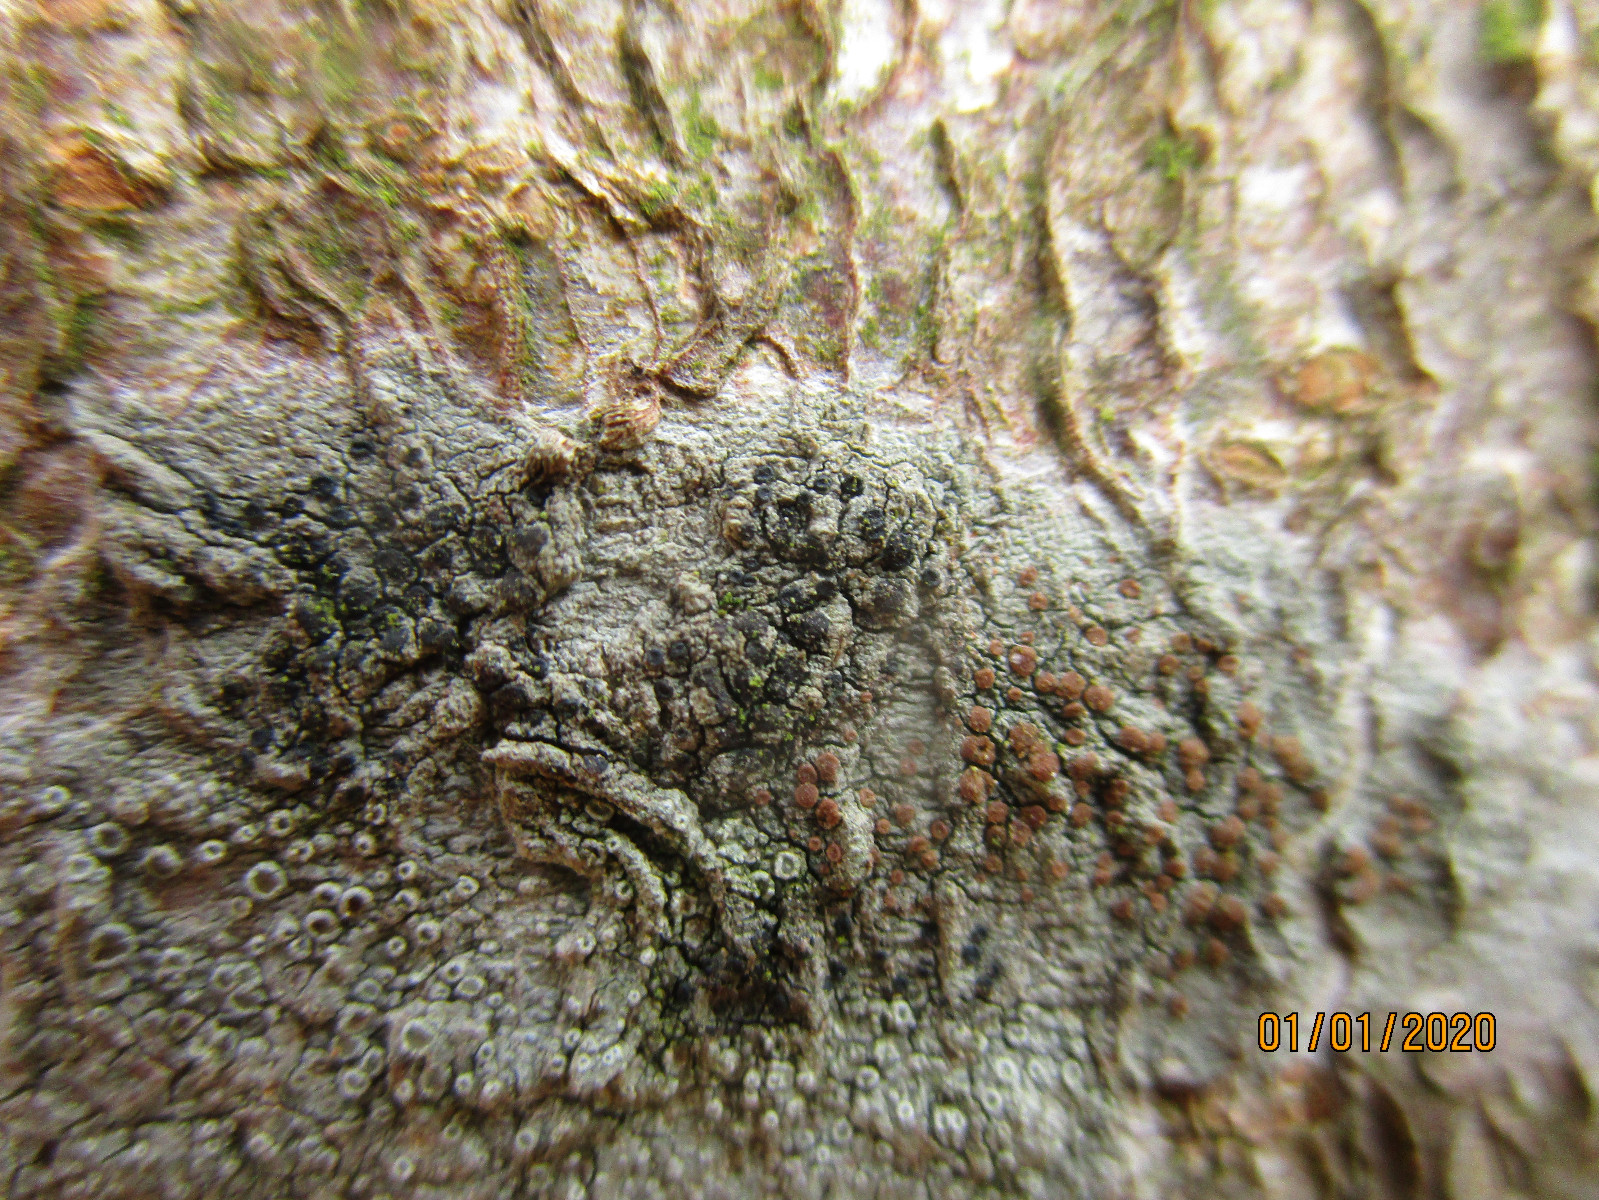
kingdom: Fungi
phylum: Ascomycota
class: Lecanoromycetes
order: Lecanorales
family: Ramalinaceae
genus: Bacidia
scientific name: Bacidia rubella
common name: rødbrun tensporelav
